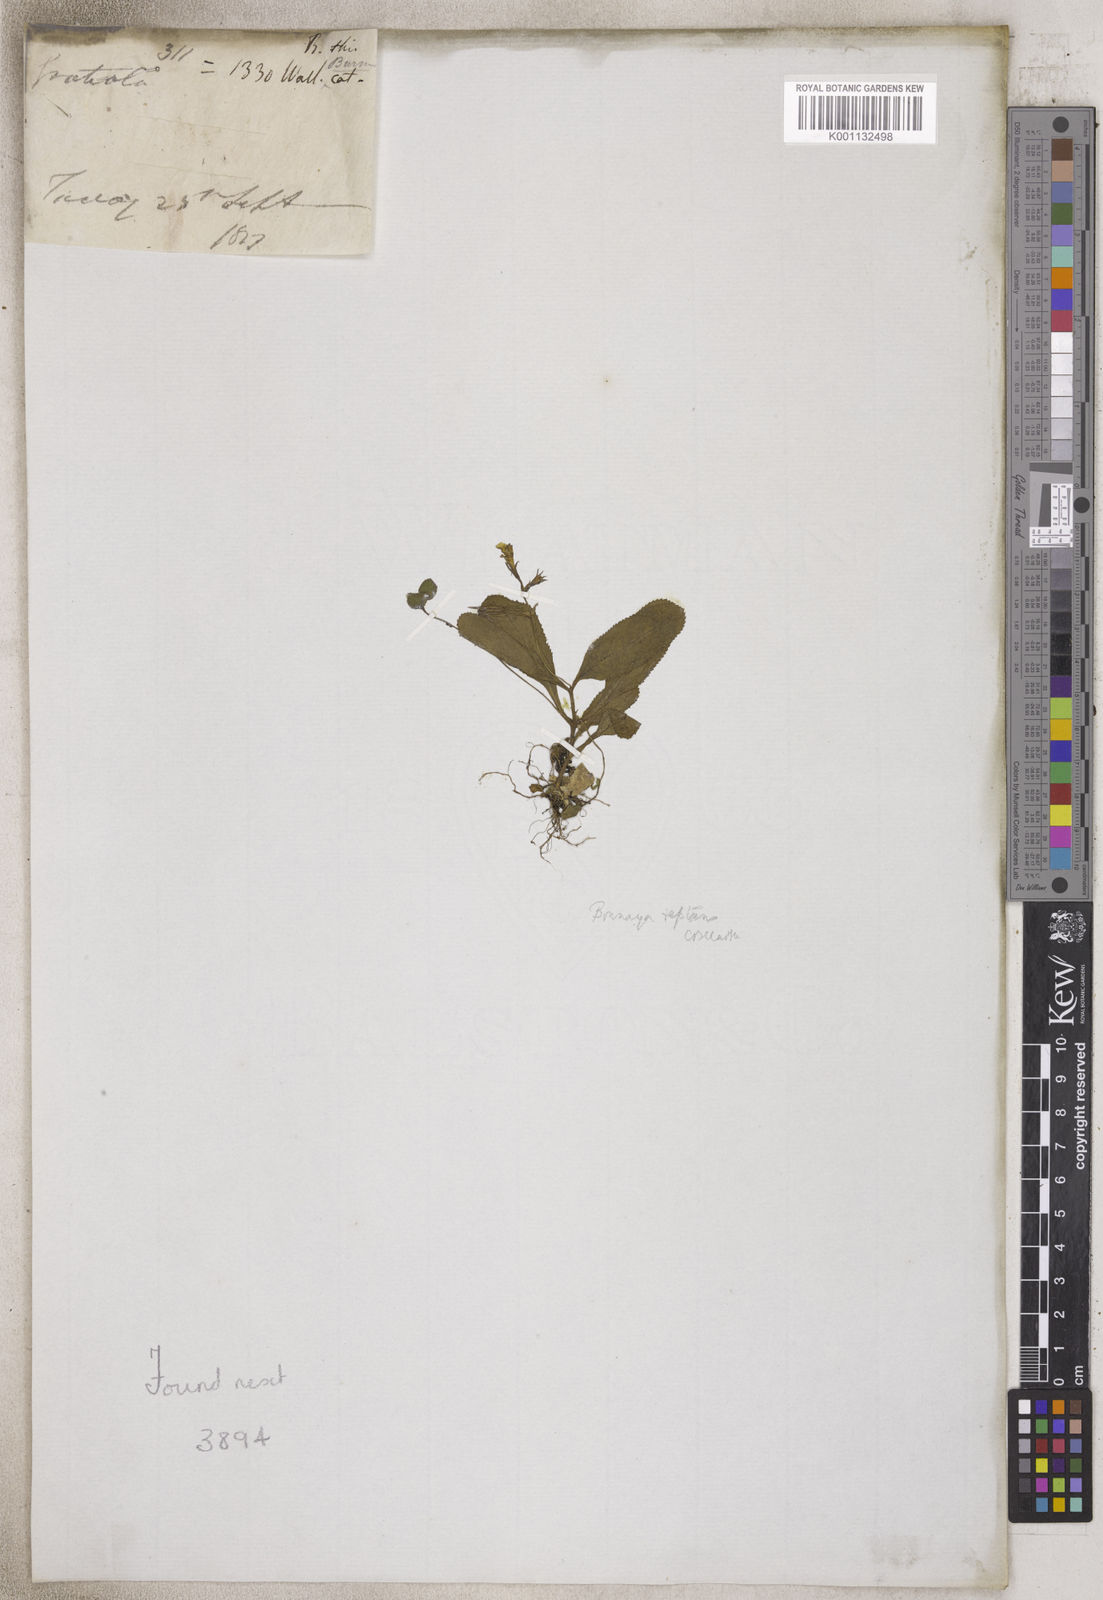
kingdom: Plantae
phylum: Tracheophyta
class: Magnoliopsida
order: Lamiales
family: Plantaginaceae
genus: Gratiola
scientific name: Gratiola
